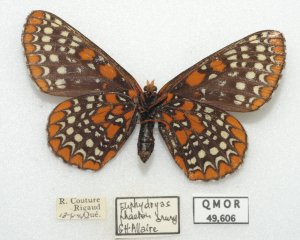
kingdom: Animalia
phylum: Arthropoda
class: Insecta
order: Lepidoptera
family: Nymphalidae
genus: Euphydryas
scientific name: Euphydryas phaeton
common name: Baltimore Checkerspot
